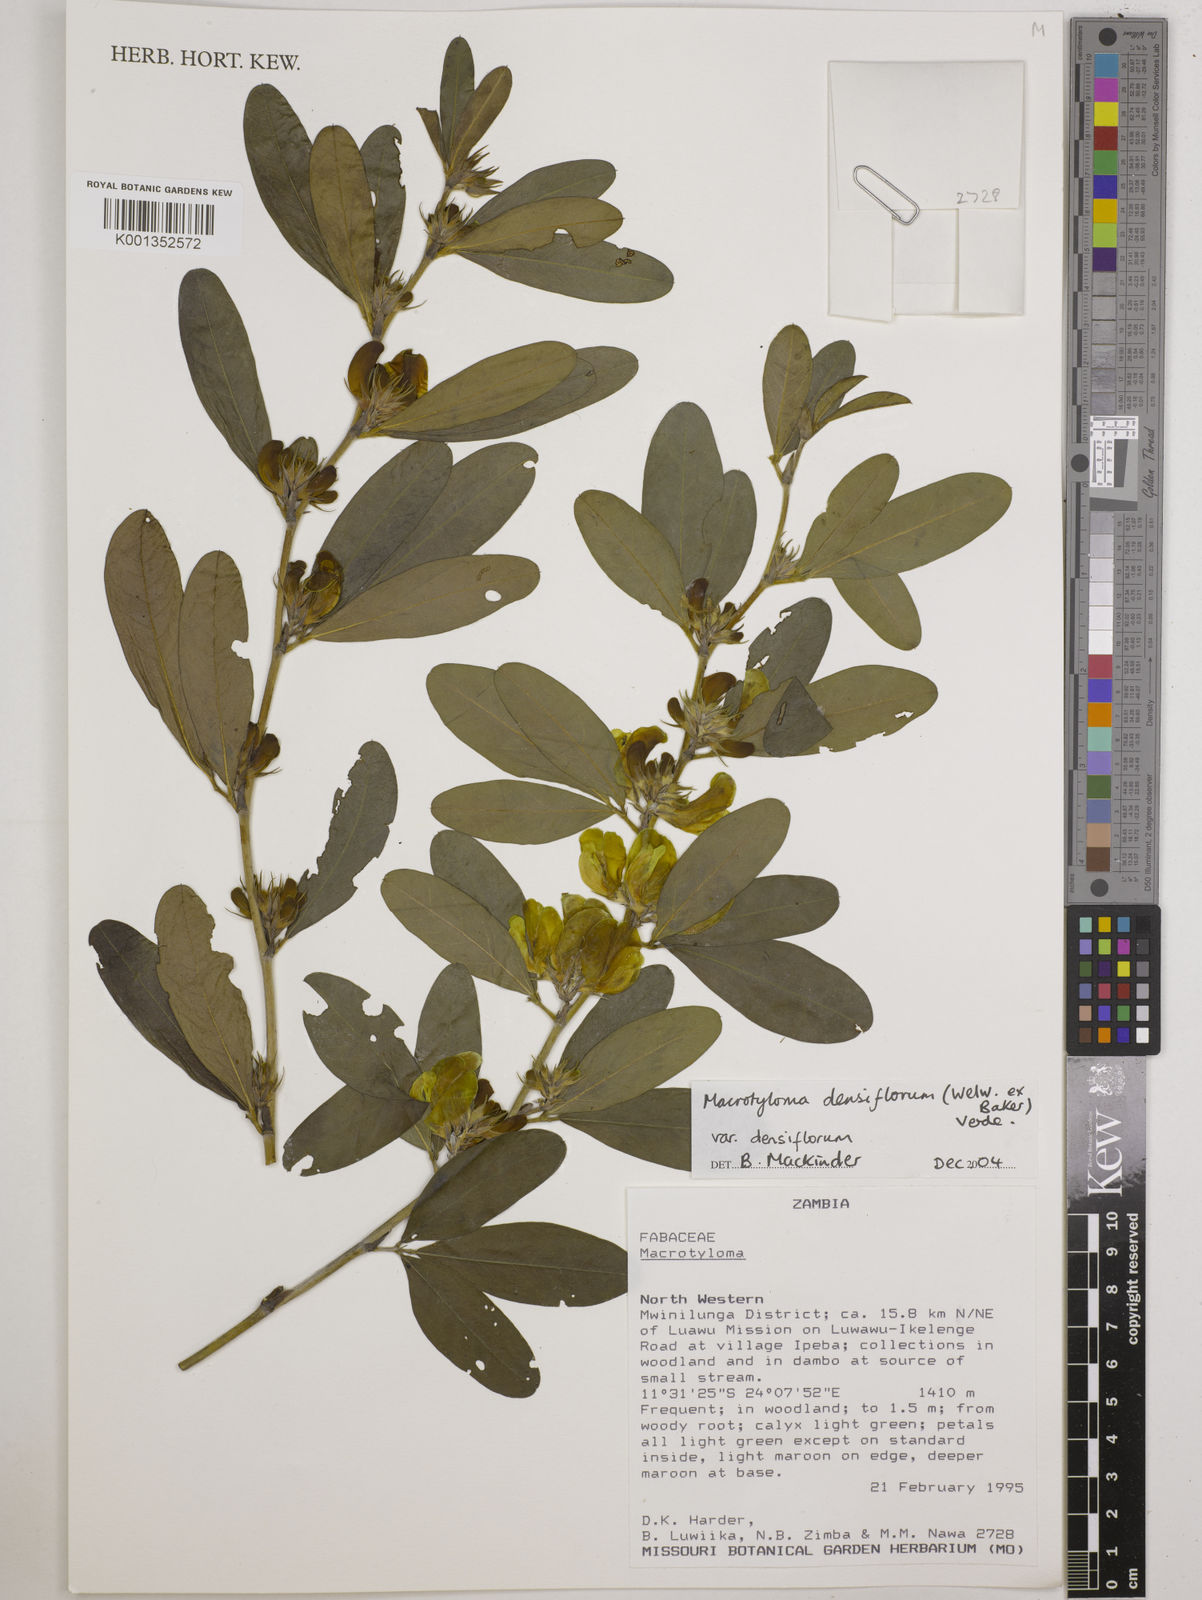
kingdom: Plantae
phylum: Tracheophyta
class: Magnoliopsida
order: Fabales
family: Fabaceae
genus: Macrotyloma
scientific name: Macrotyloma densiflorum
